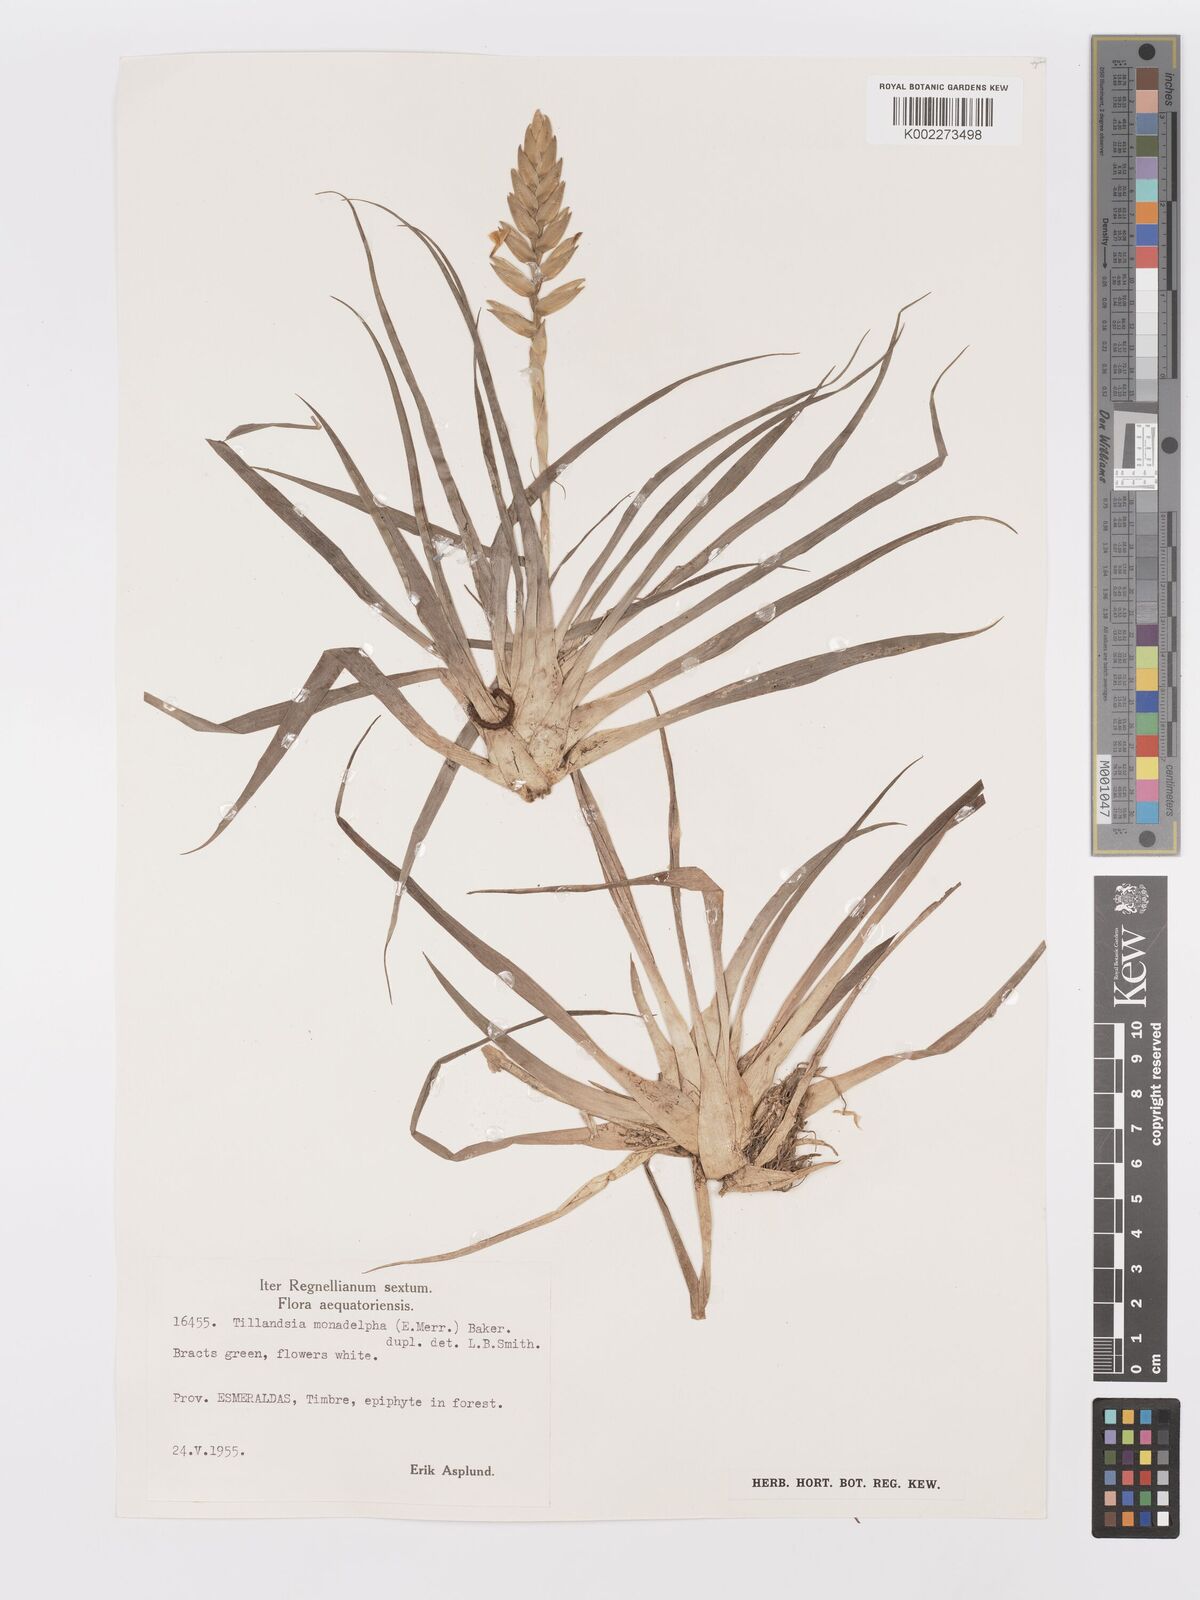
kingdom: Plantae
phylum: Tracheophyta
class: Liliopsida
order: Poales
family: Bromeliaceae
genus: Lemeltonia
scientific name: Lemeltonia monadelpha
